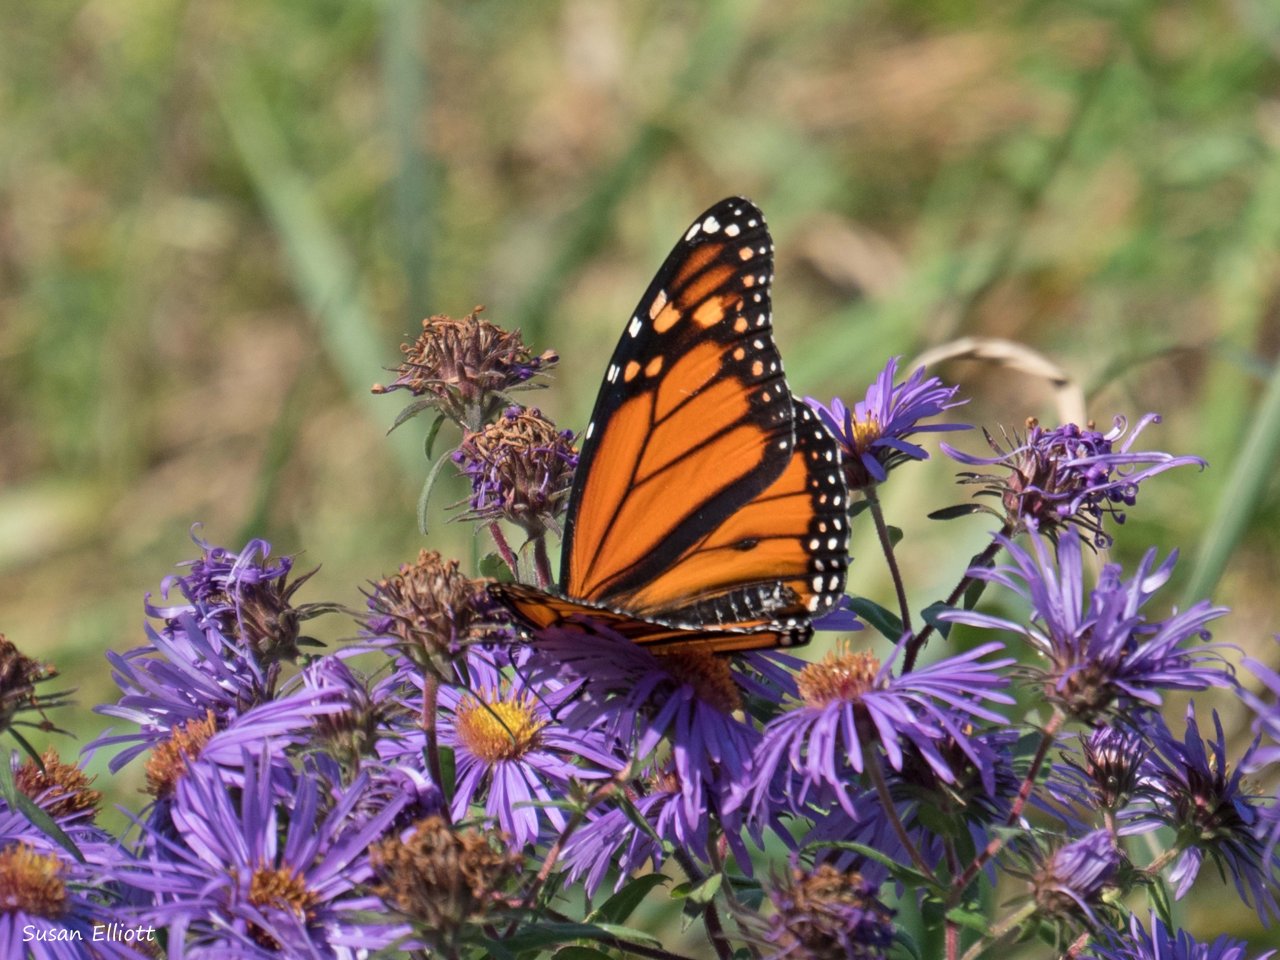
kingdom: Animalia
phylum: Arthropoda
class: Insecta
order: Lepidoptera
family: Nymphalidae
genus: Danaus
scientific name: Danaus plexippus
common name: Monarch
